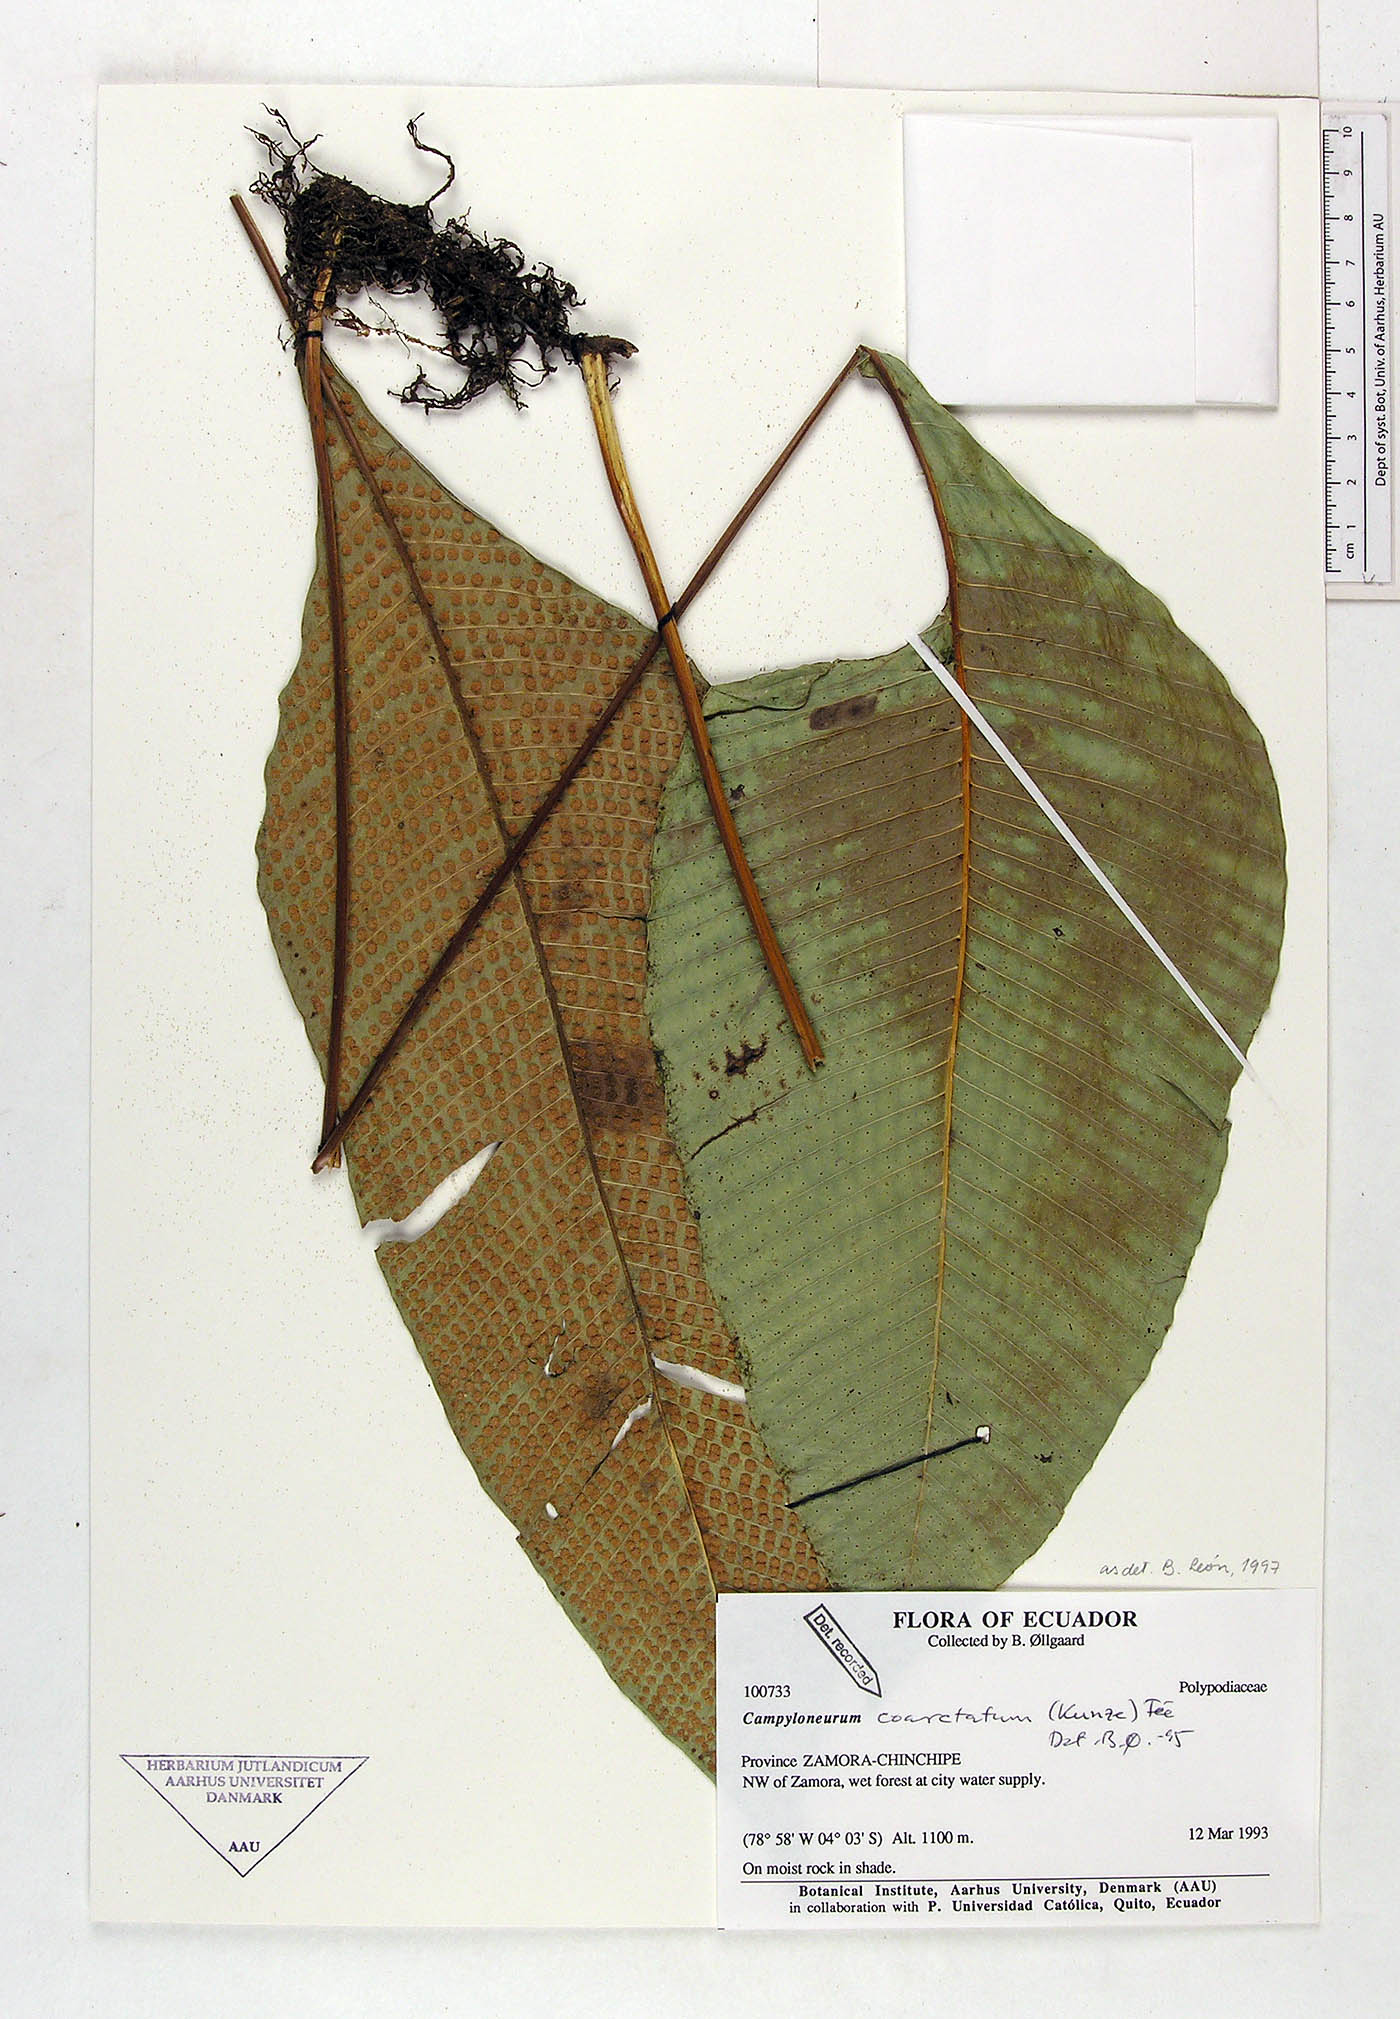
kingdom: Plantae
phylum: Tracheophyta
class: Polypodiopsida
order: Polypodiales
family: Polypodiaceae
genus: Campyloneurum
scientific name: Campyloneurum coarctatum
